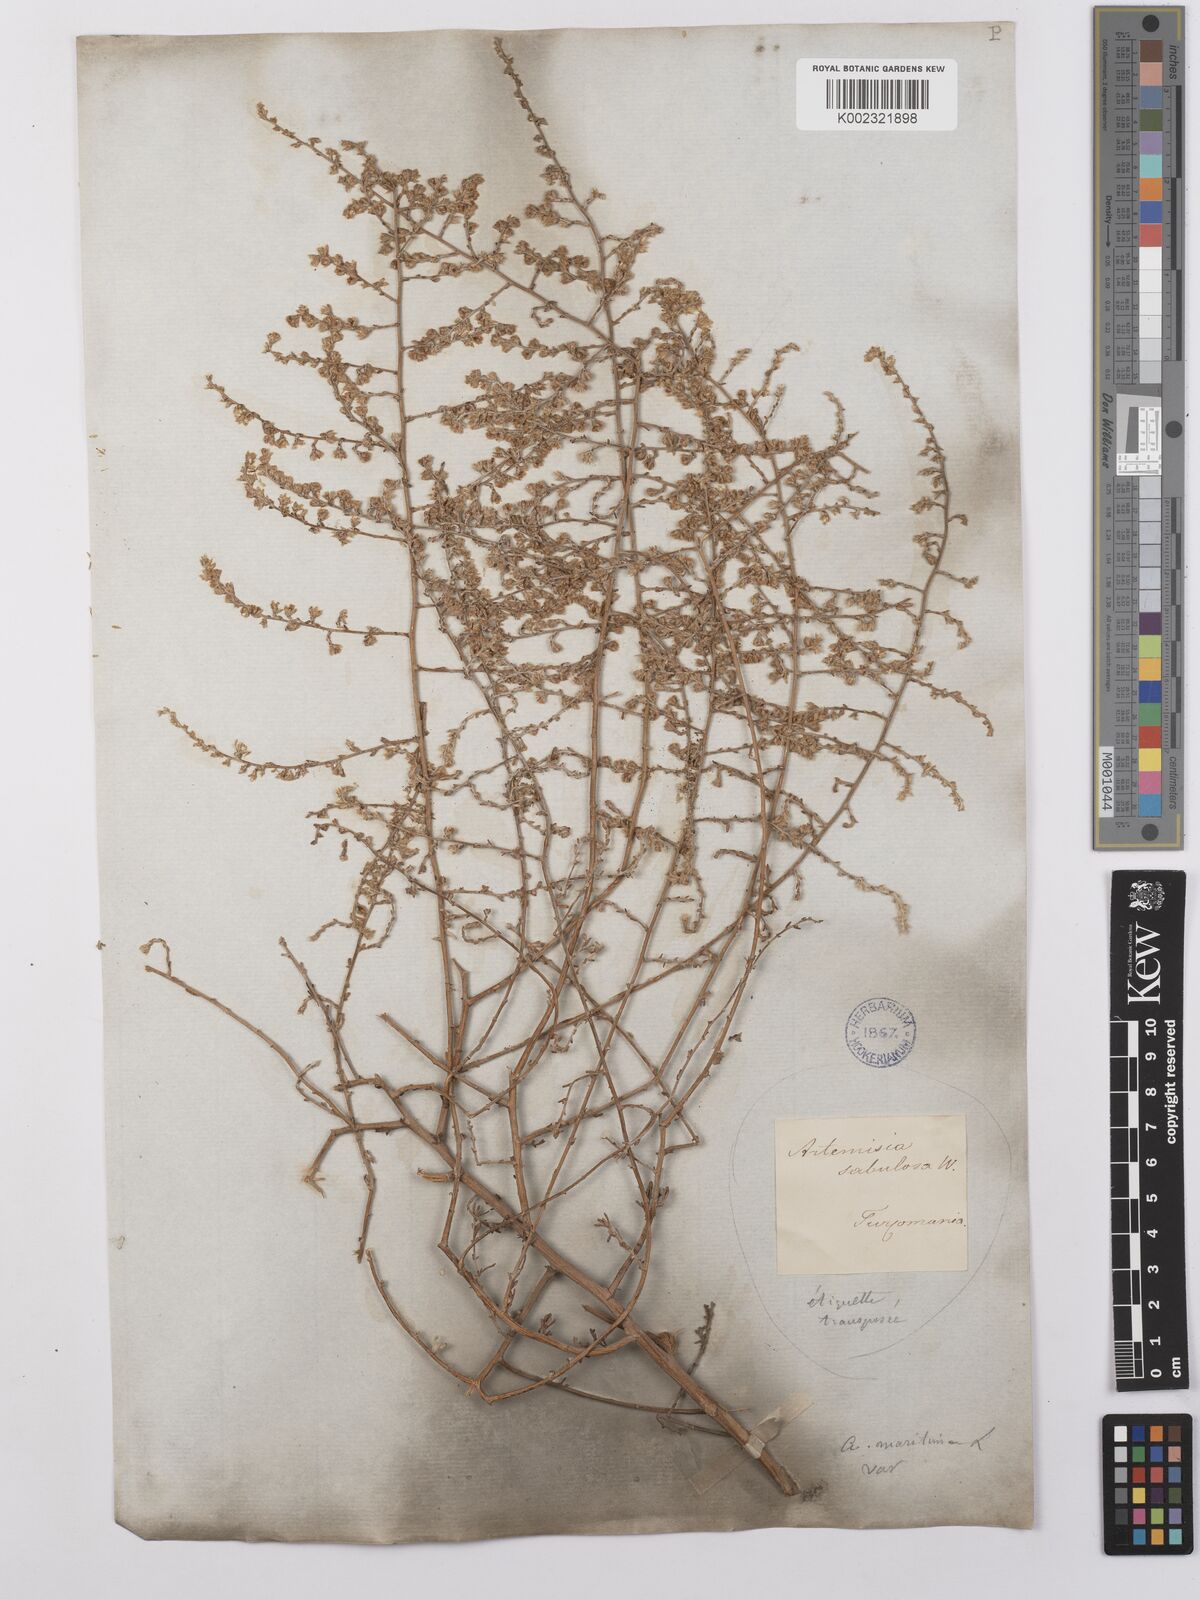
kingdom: Plantae
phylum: Tracheophyta
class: Magnoliopsida
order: Asterales
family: Asteraceae
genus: Artemisia
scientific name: Artemisia compacta
